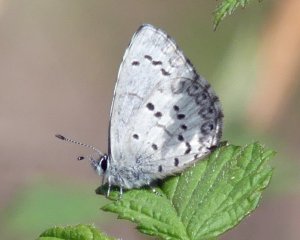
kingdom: Animalia
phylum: Arthropoda
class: Insecta
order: Lepidoptera
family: Lycaenidae
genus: Celastrina
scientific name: Celastrina
